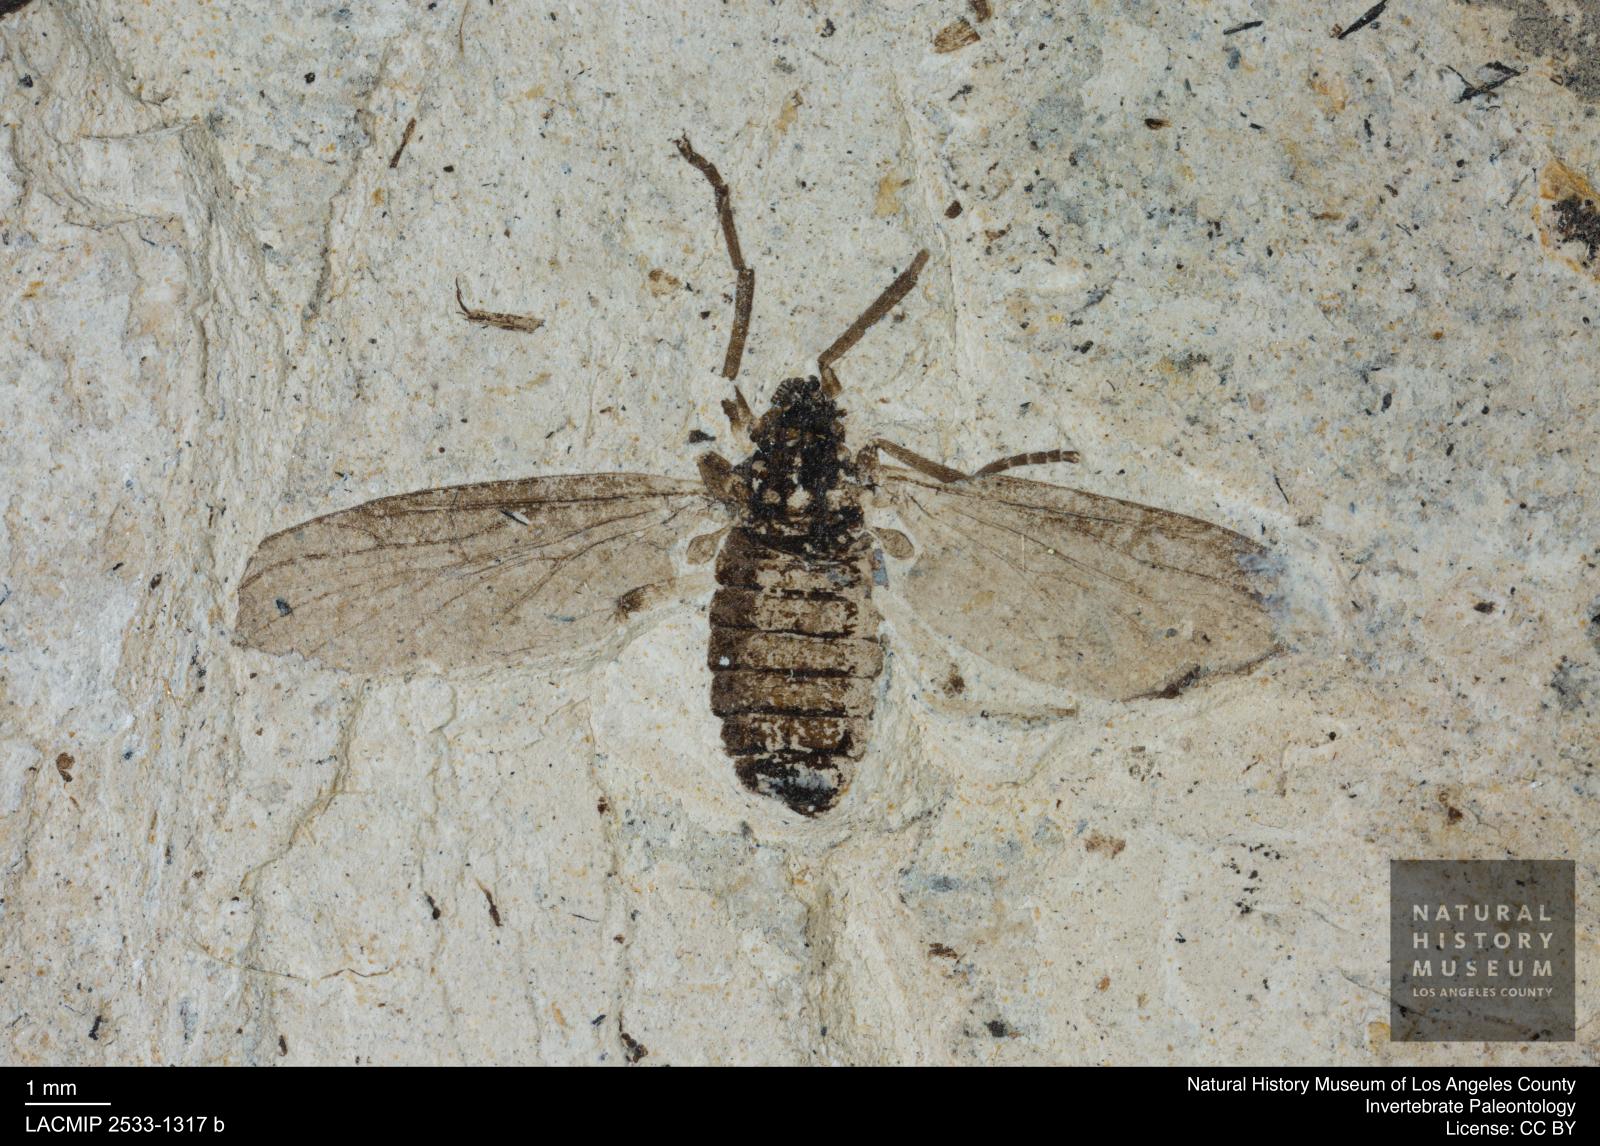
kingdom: Animalia
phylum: Arthropoda
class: Insecta
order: Diptera
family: Bibionidae
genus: Plecia
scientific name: Plecia stygia
